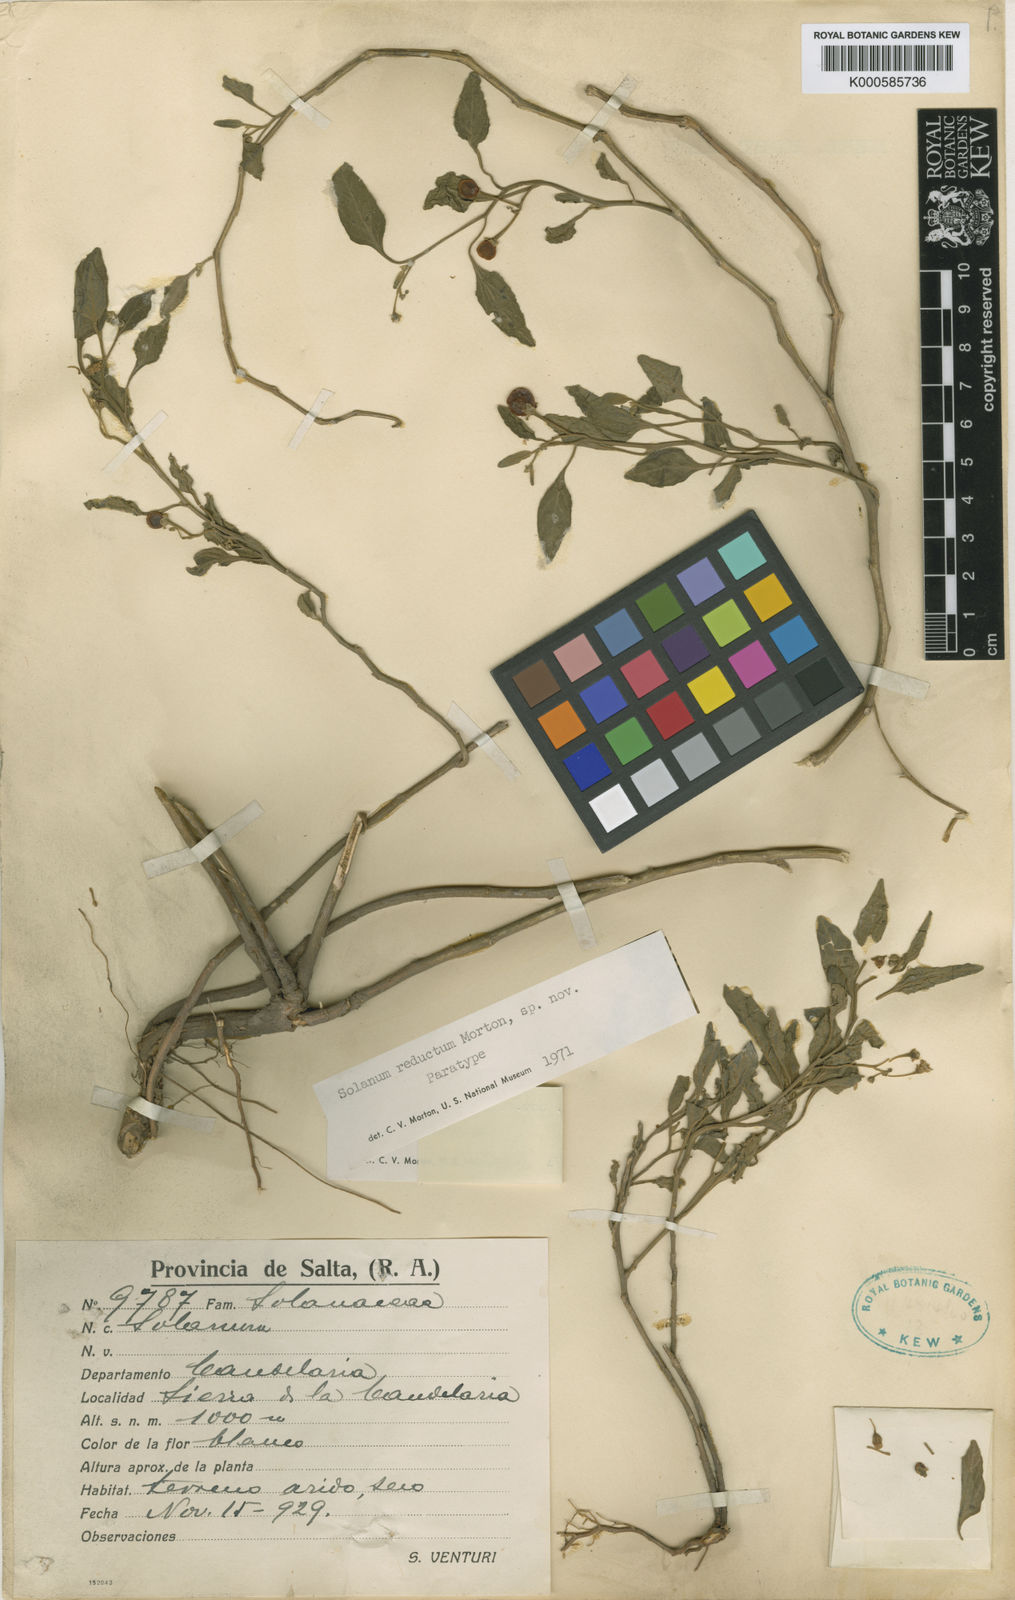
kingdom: Plantae
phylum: Tracheophyta
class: Magnoliopsida
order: Solanales
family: Solanaceae
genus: Solanum
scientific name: Solanum reductum
